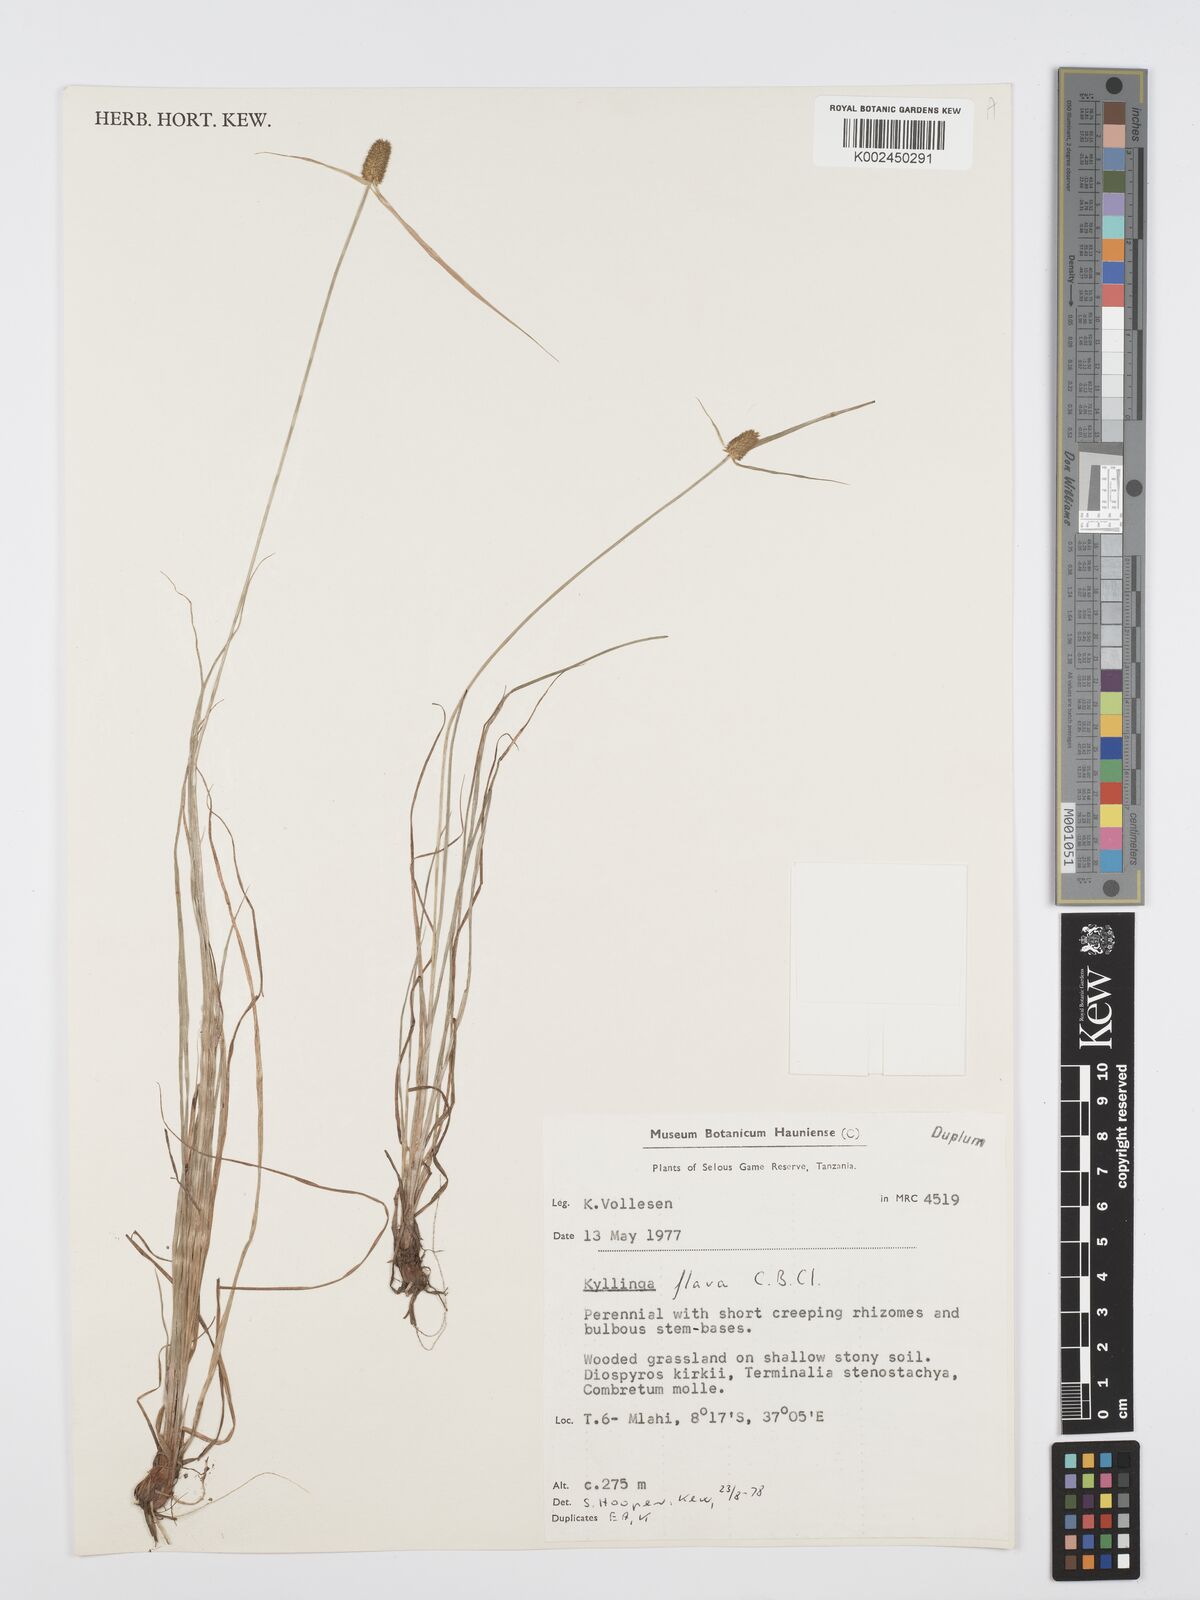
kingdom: Plantae
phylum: Tracheophyta
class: Liliopsida
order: Poales
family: Cyperaceae
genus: Cyperus
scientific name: Cyperus
